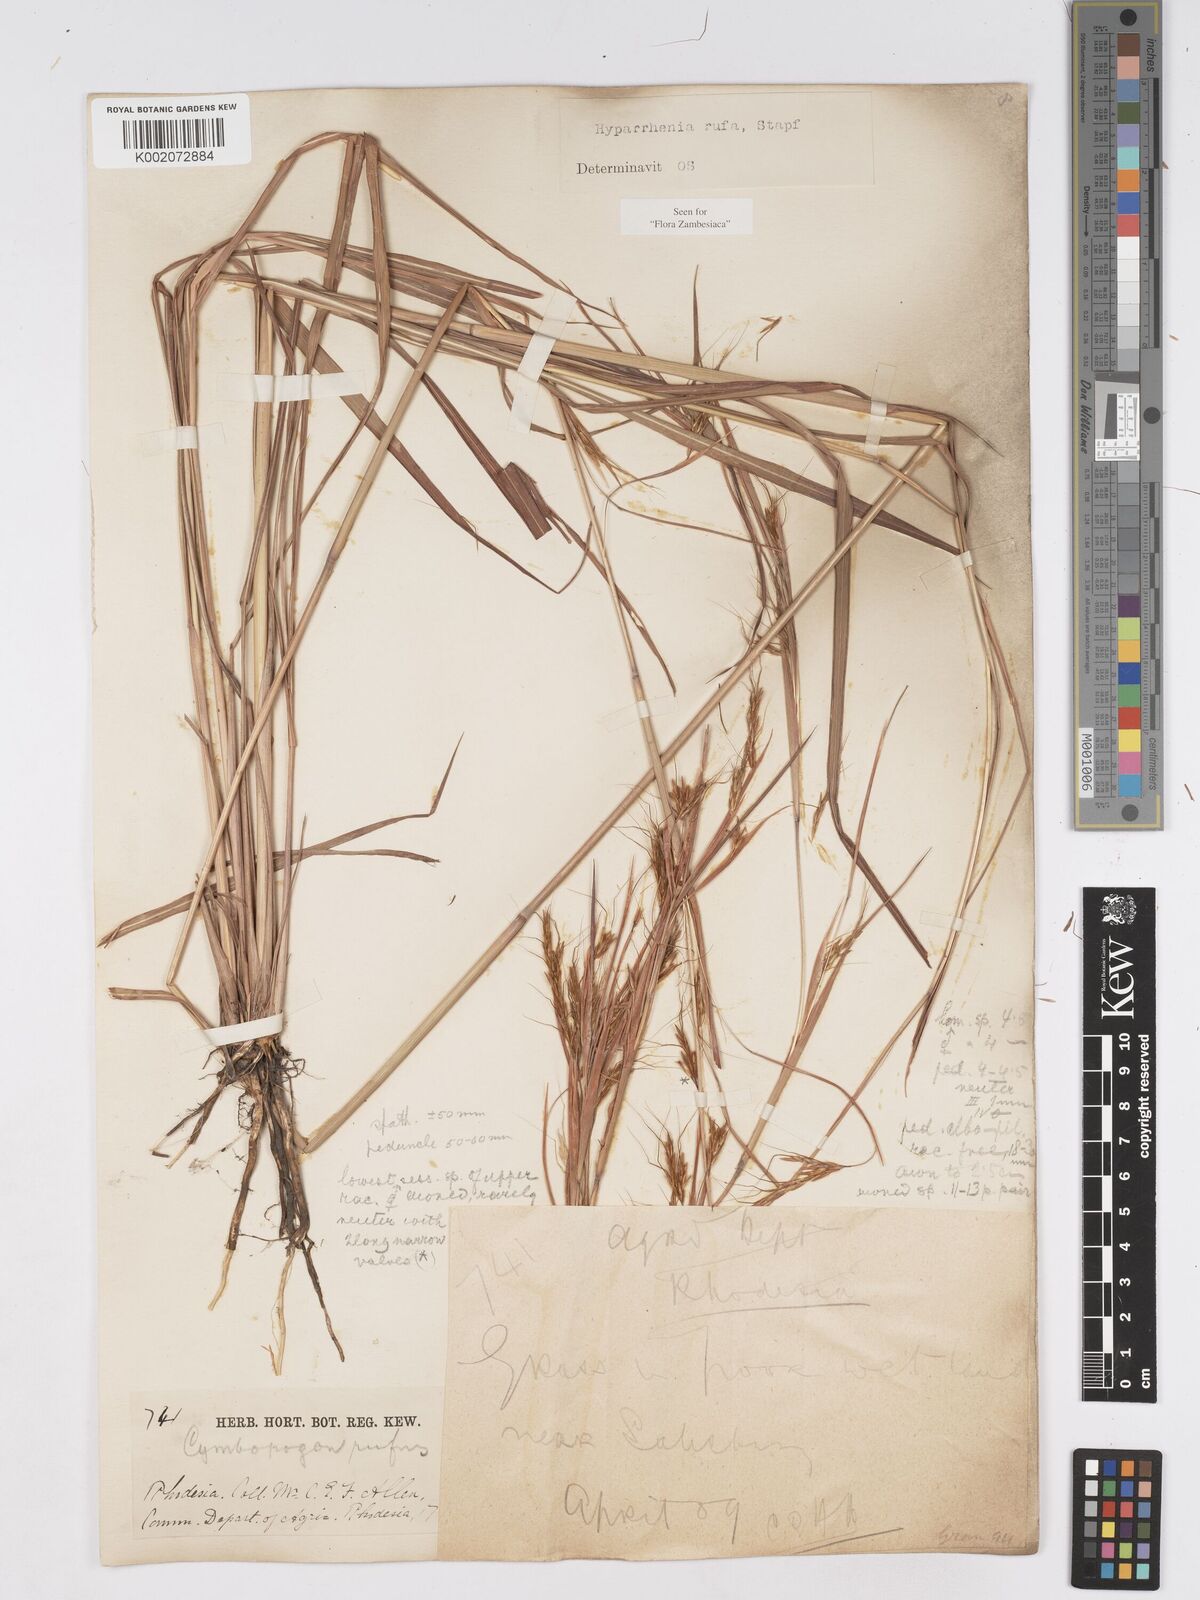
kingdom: Plantae
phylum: Tracheophyta
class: Liliopsida
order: Poales
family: Poaceae
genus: Hyparrhenia
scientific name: Hyparrhenia rufa
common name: Jaraguagrass
